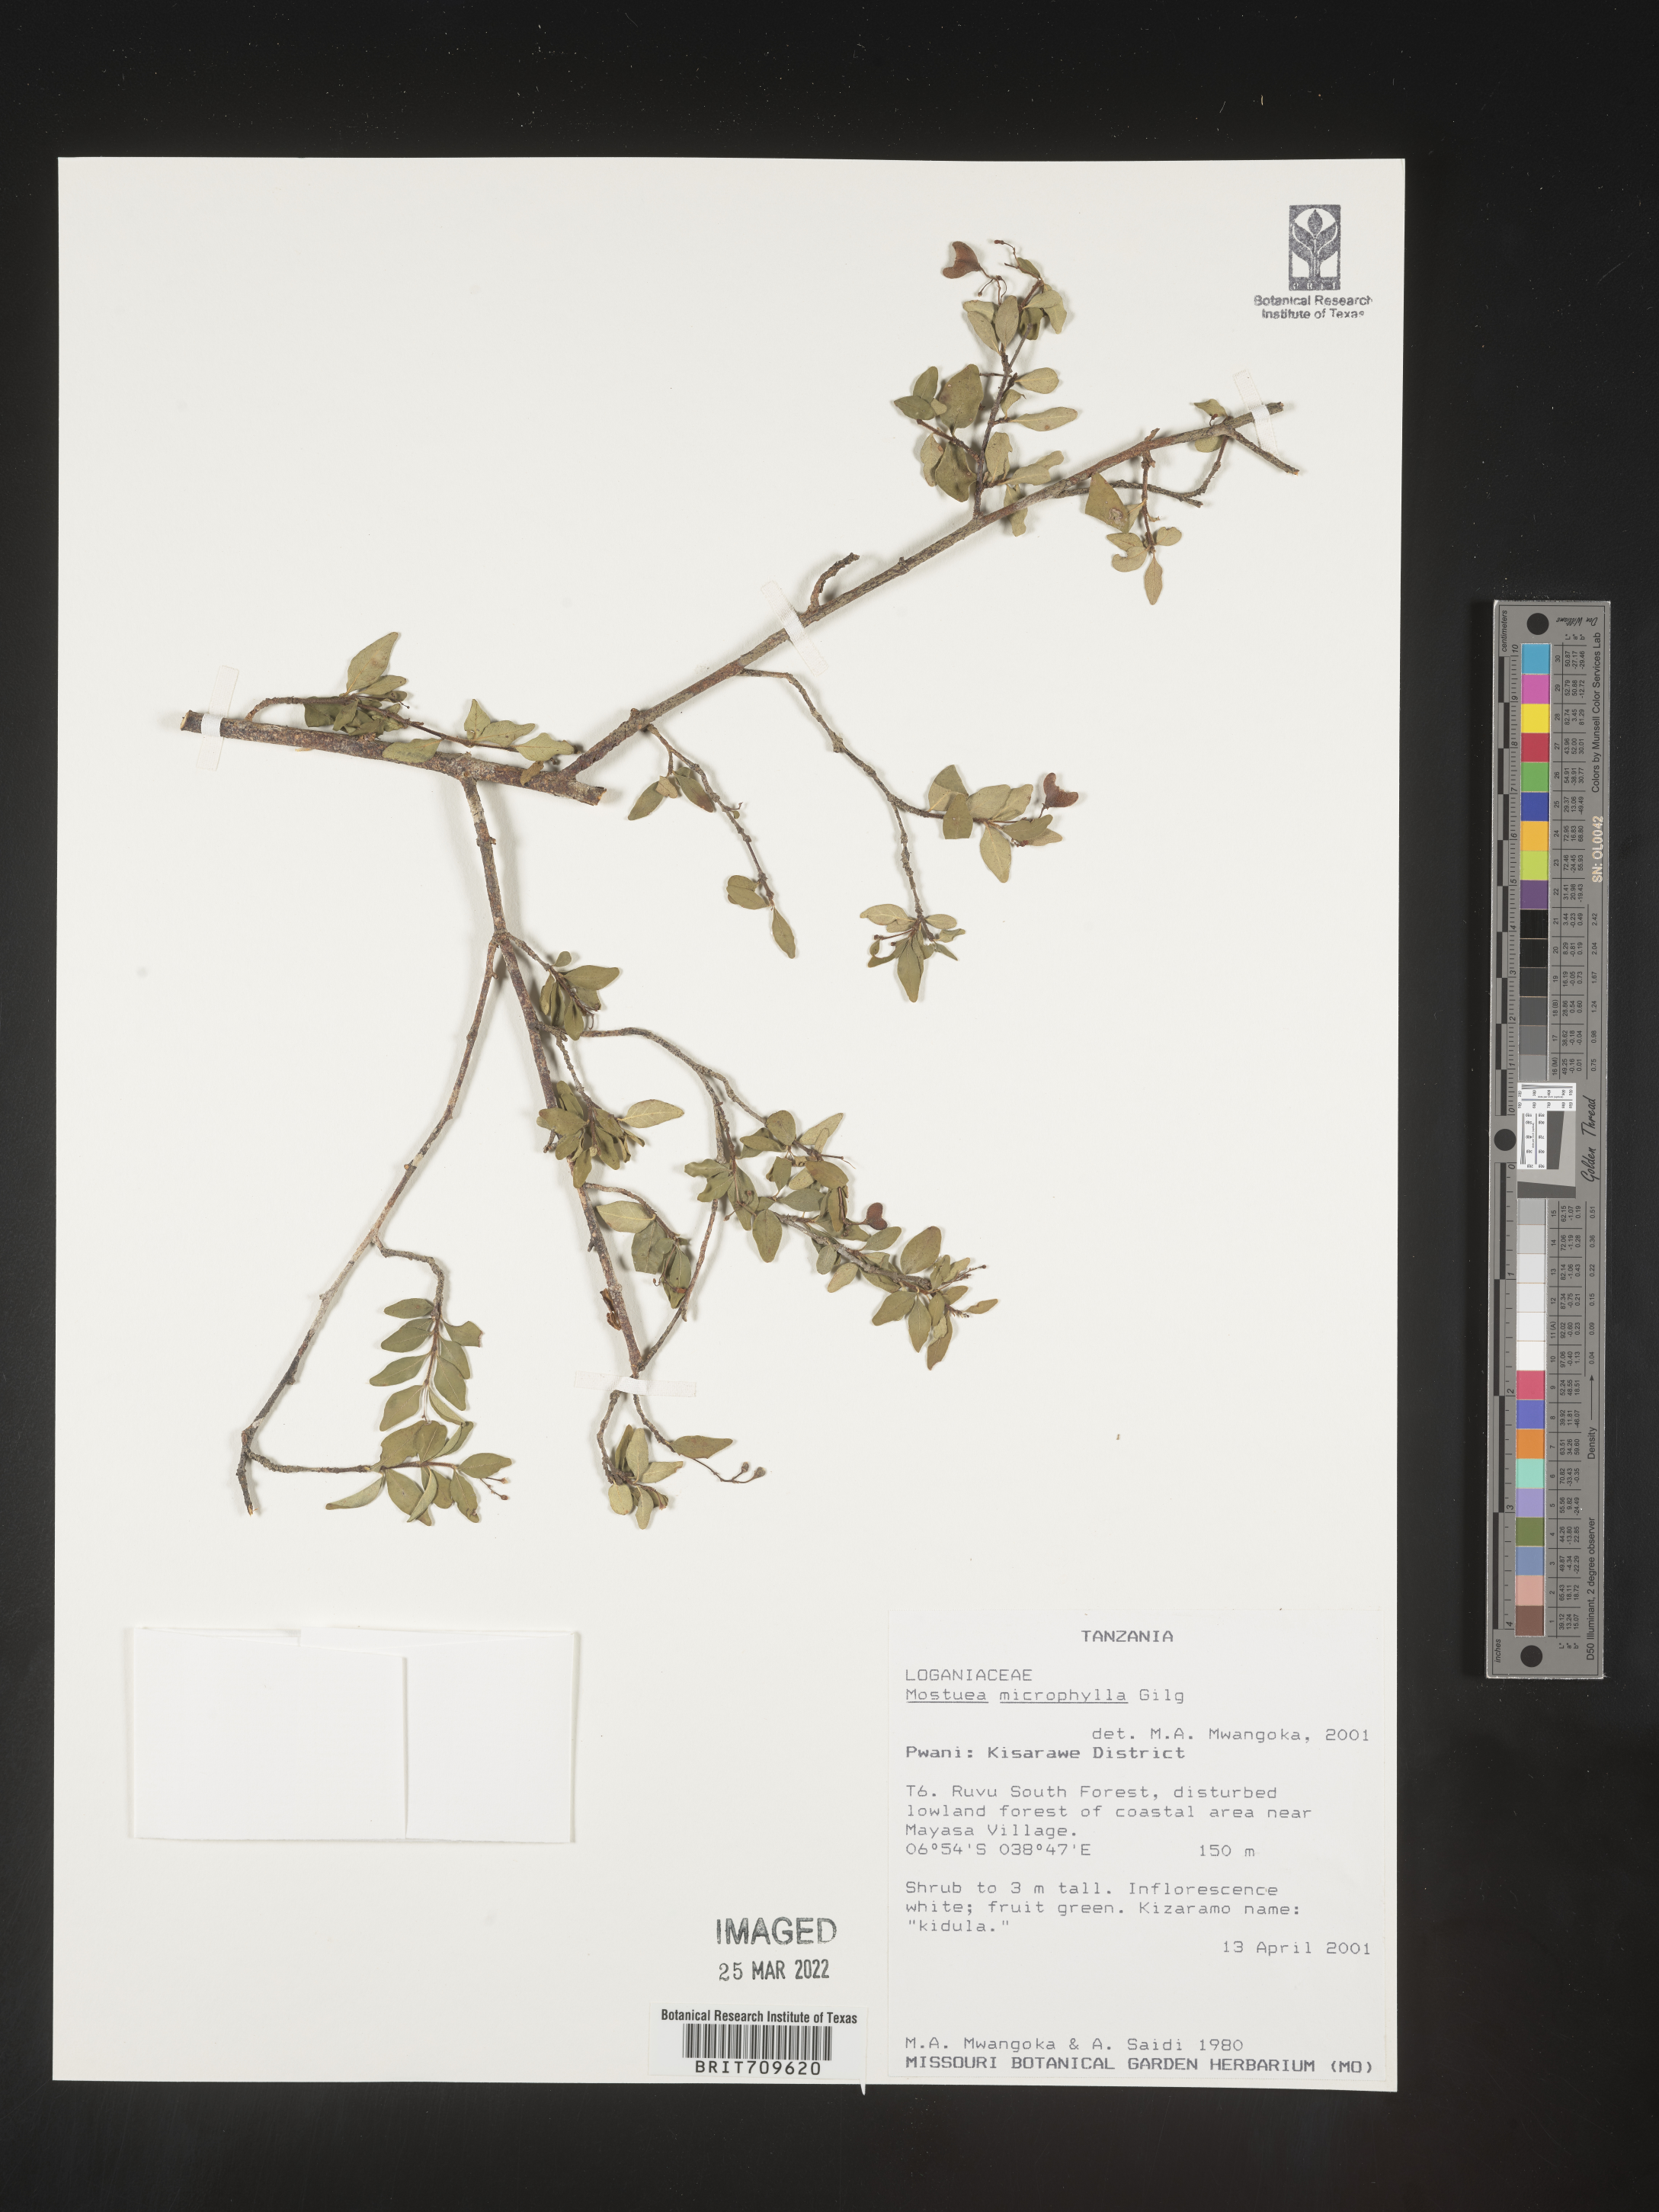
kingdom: Plantae
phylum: Tracheophyta
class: Magnoliopsida
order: Gentianales
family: Gelsemiaceae
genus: Mostuea
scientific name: Mostuea
